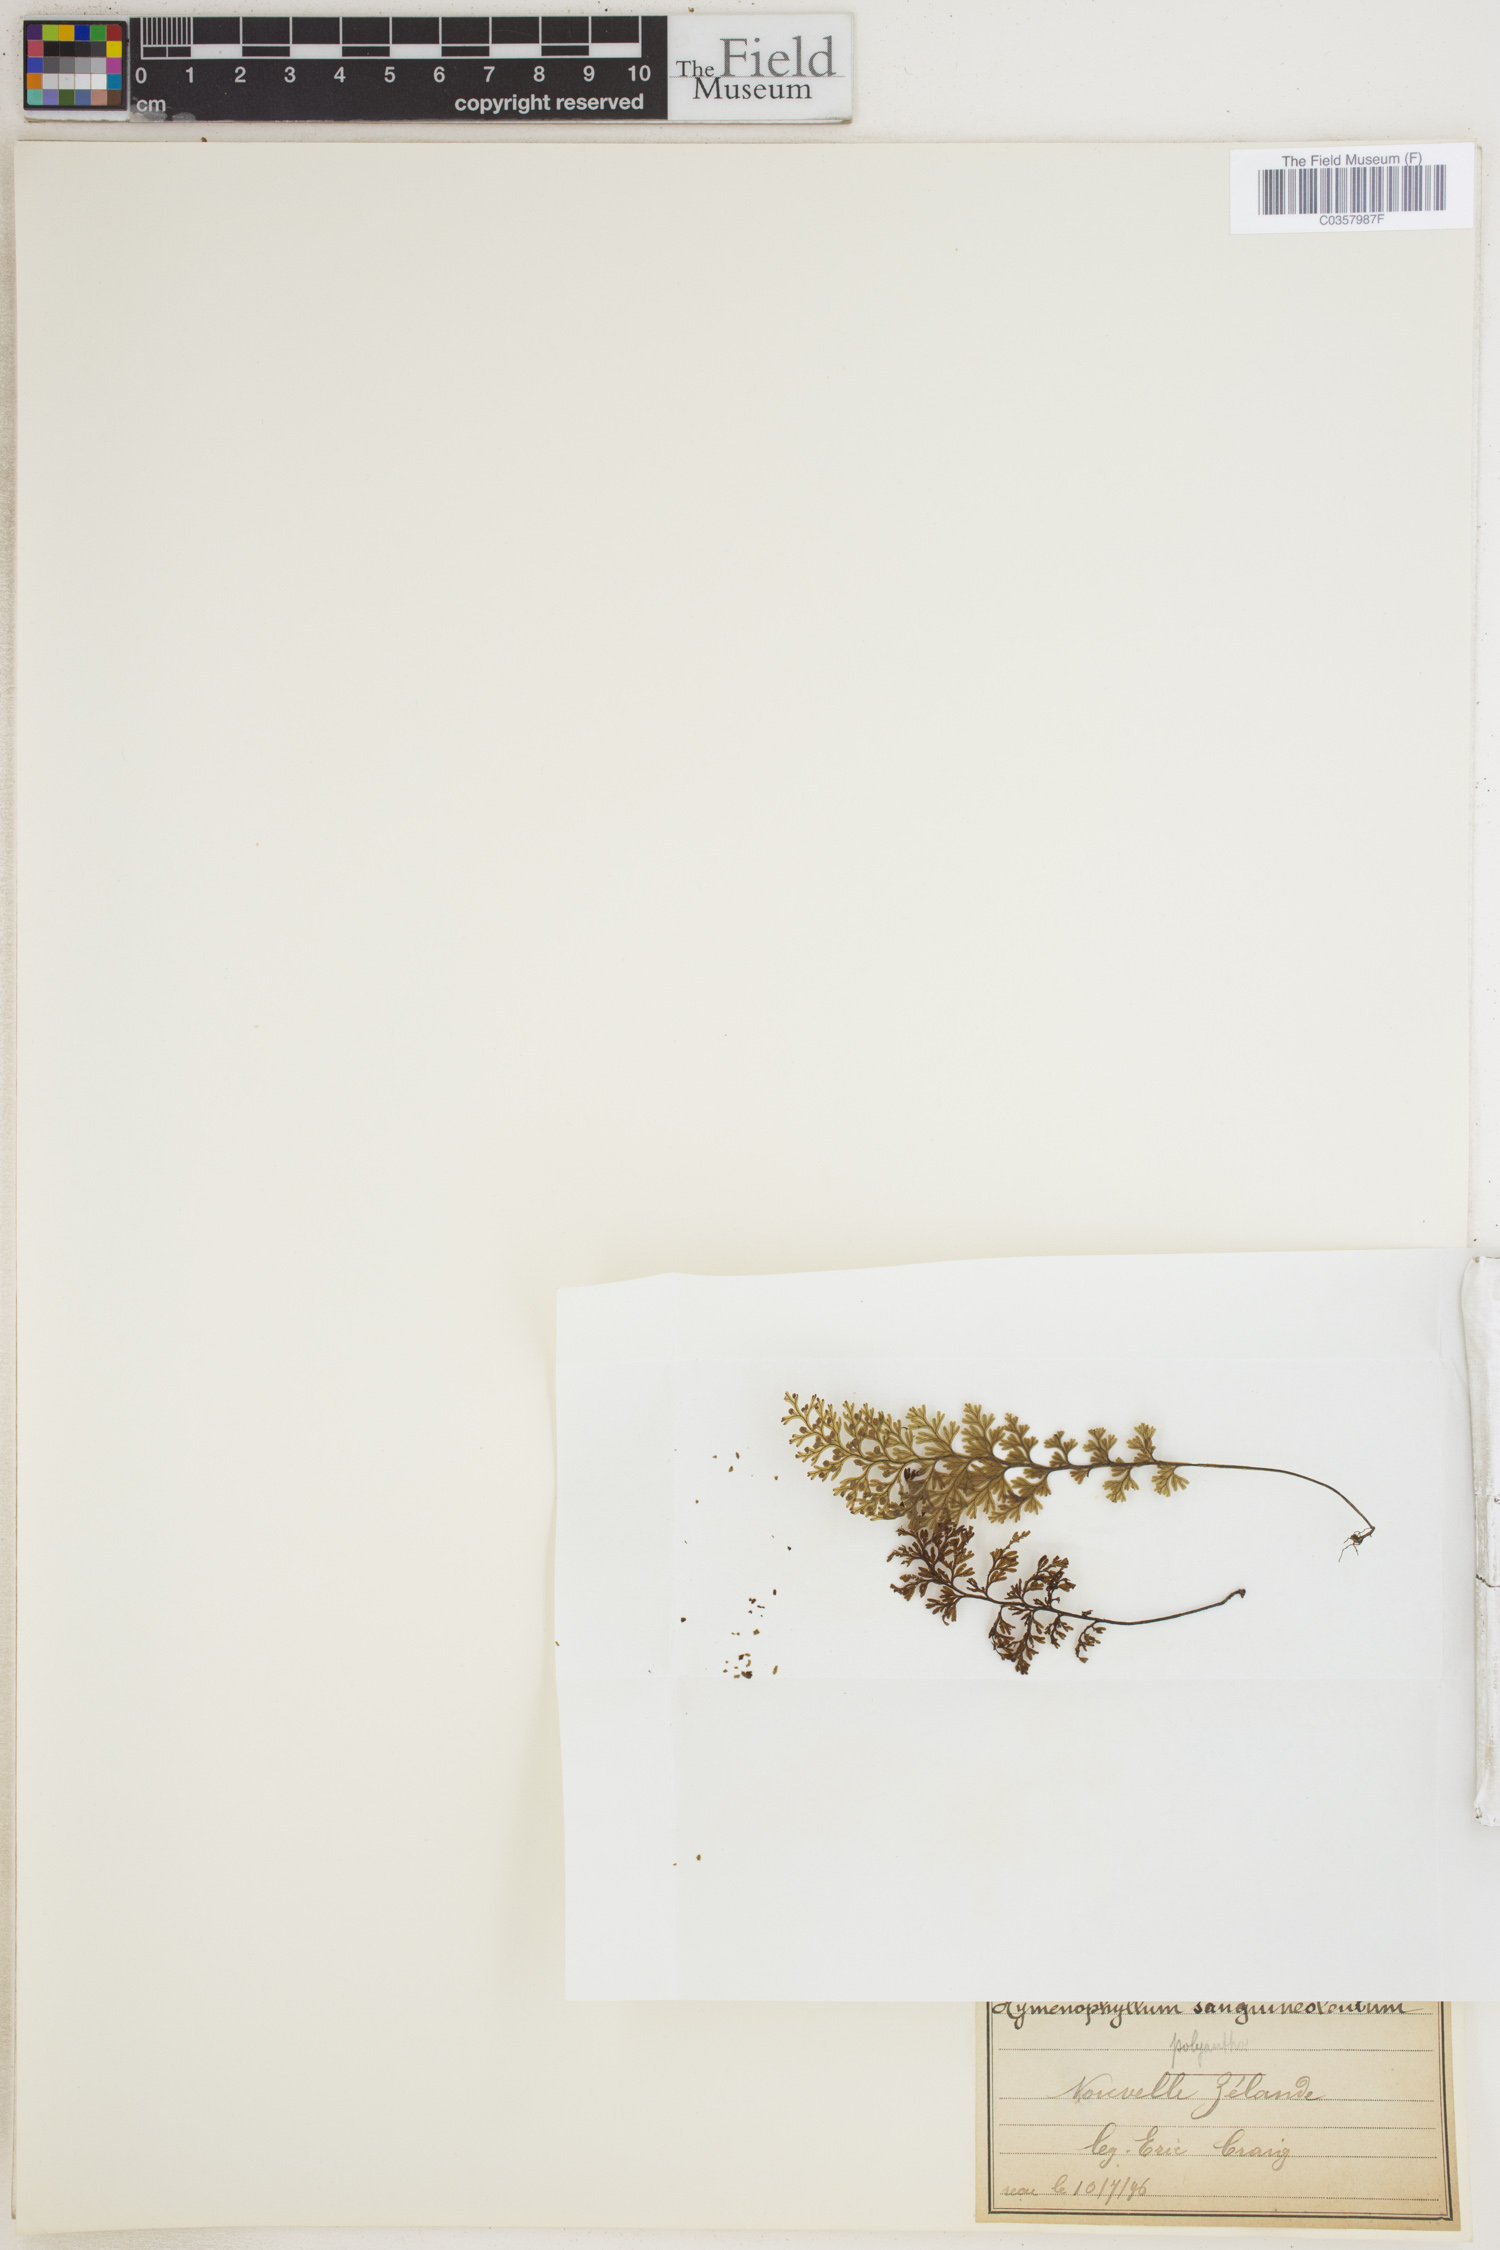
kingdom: Plantae
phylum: Tracheophyta
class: Polypodiopsida
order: Hymenophyllales
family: Hymenophyllaceae
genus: Hymenophyllum
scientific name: Hymenophyllum sanguinolentum
